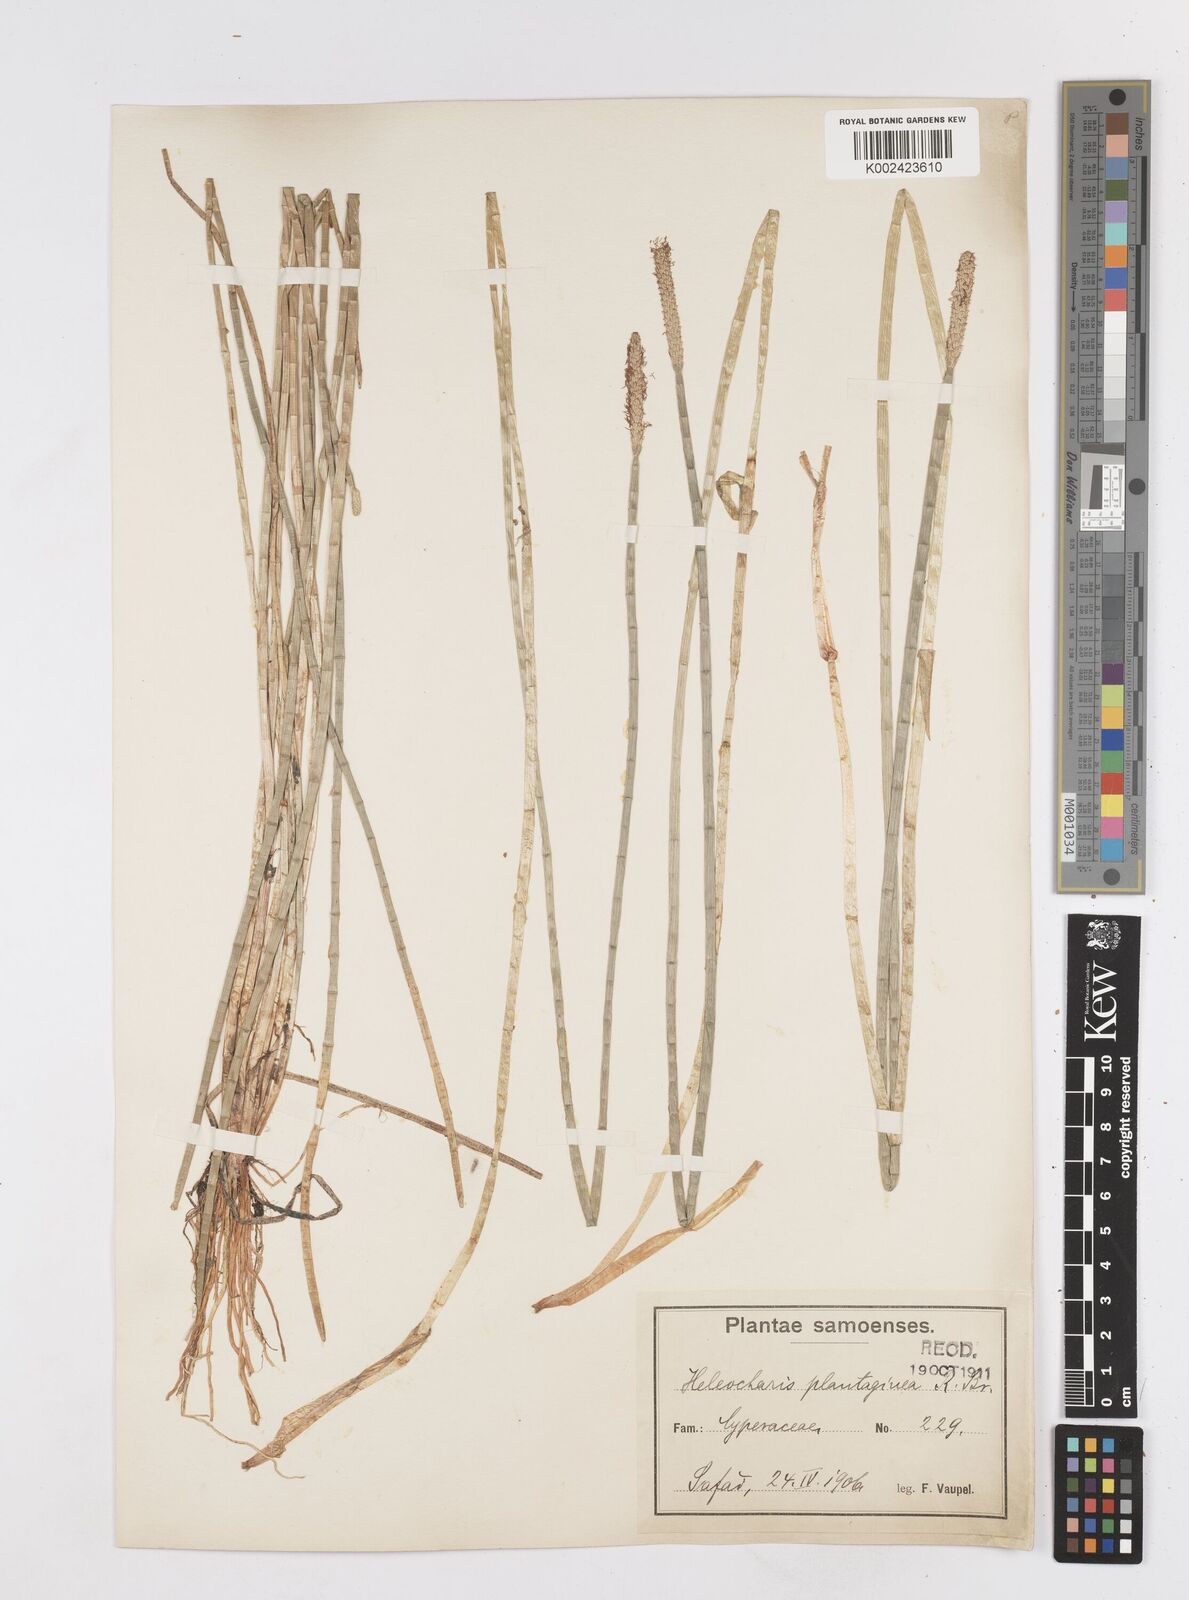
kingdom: Plantae
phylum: Tracheophyta
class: Liliopsida
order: Poales
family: Cyperaceae
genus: Eleocharis
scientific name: Eleocharis dulcis
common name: Chinese water chestnut
